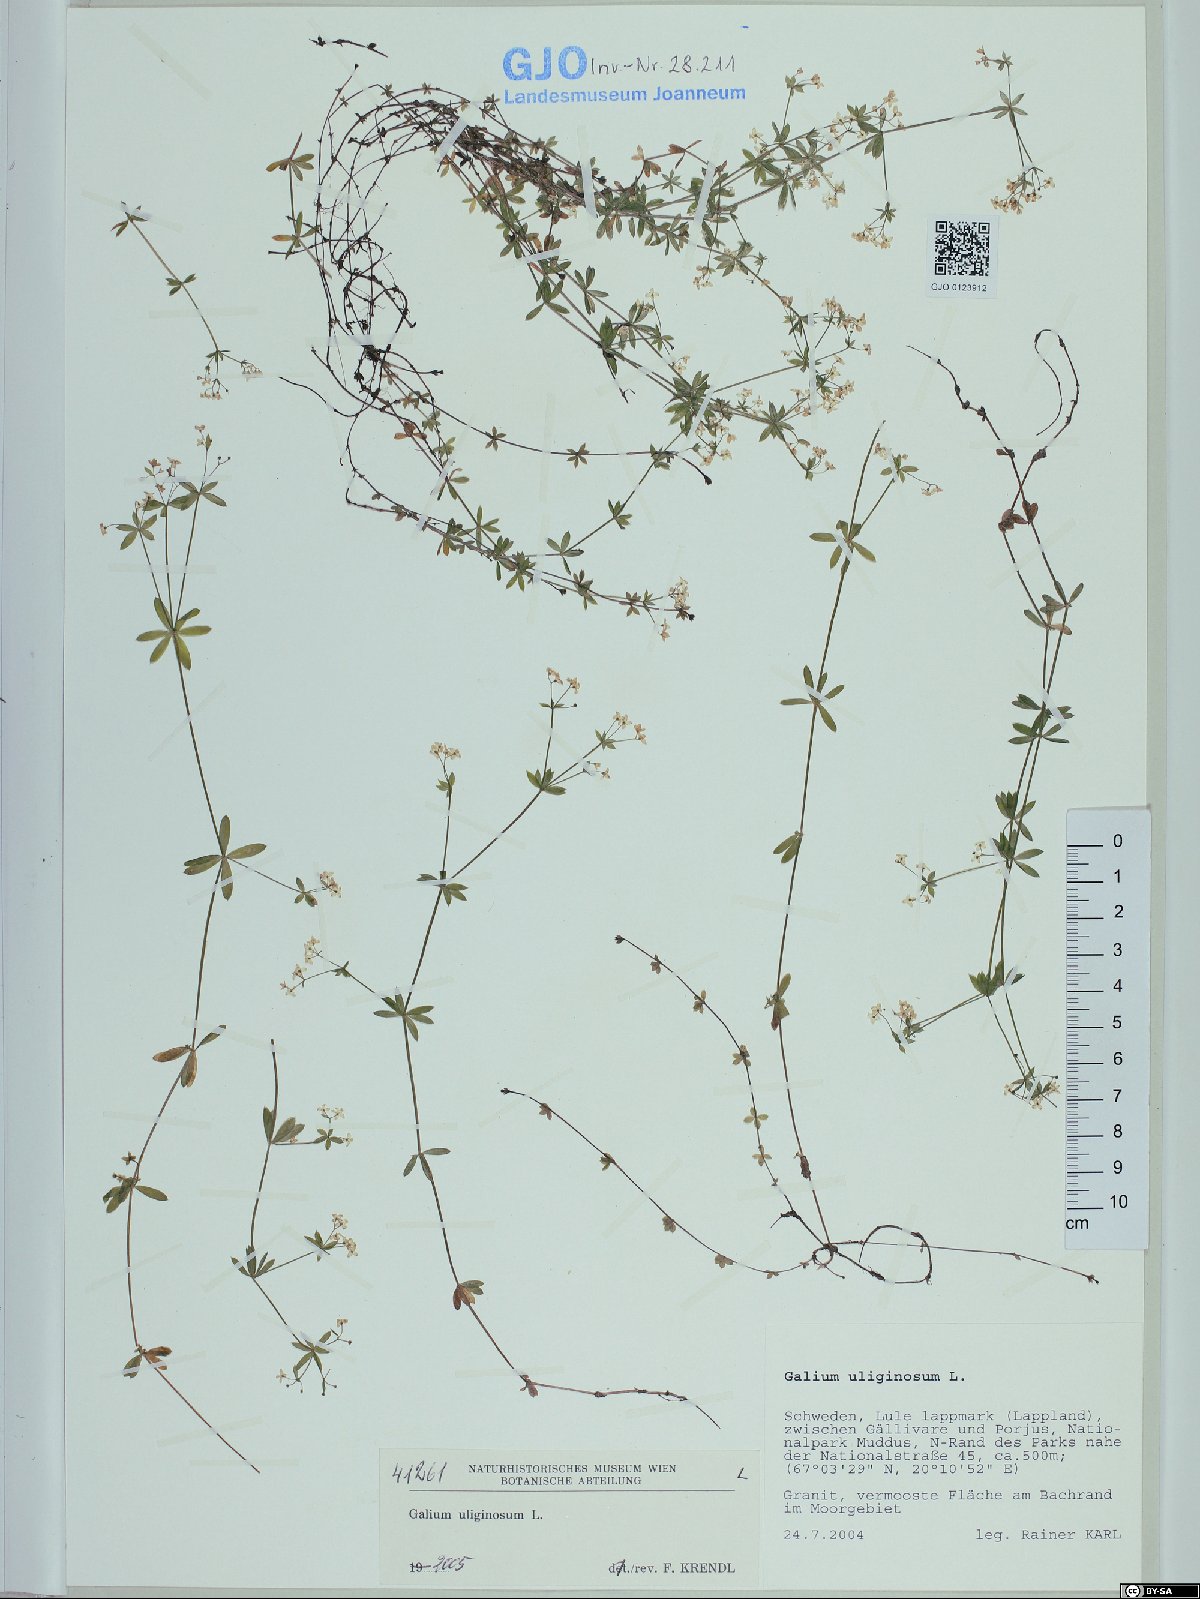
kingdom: Plantae
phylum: Tracheophyta
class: Magnoliopsida
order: Gentianales
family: Rubiaceae
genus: Galium
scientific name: Galium uliginosum
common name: Fen bedstraw
